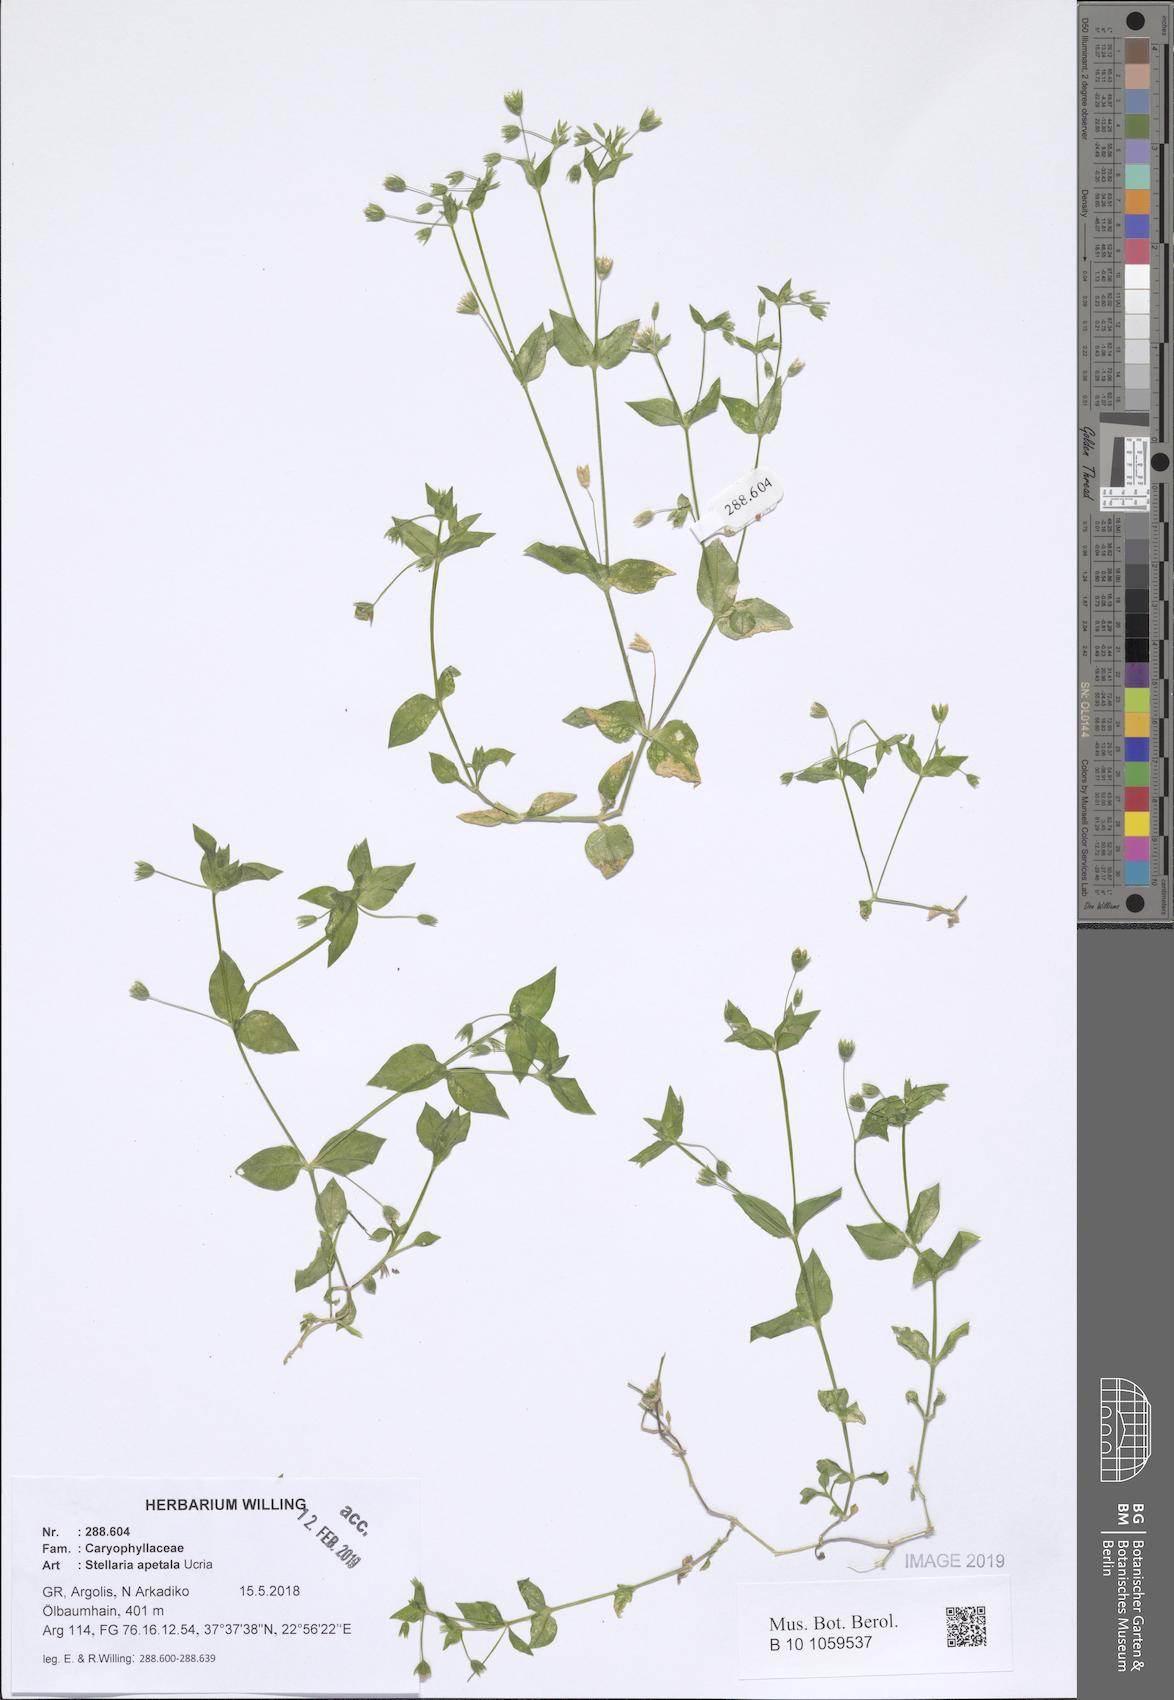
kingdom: Plantae
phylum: Tracheophyta
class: Magnoliopsida
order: Caryophyllales
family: Caryophyllaceae
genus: Stellaria
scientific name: Stellaria apetala
